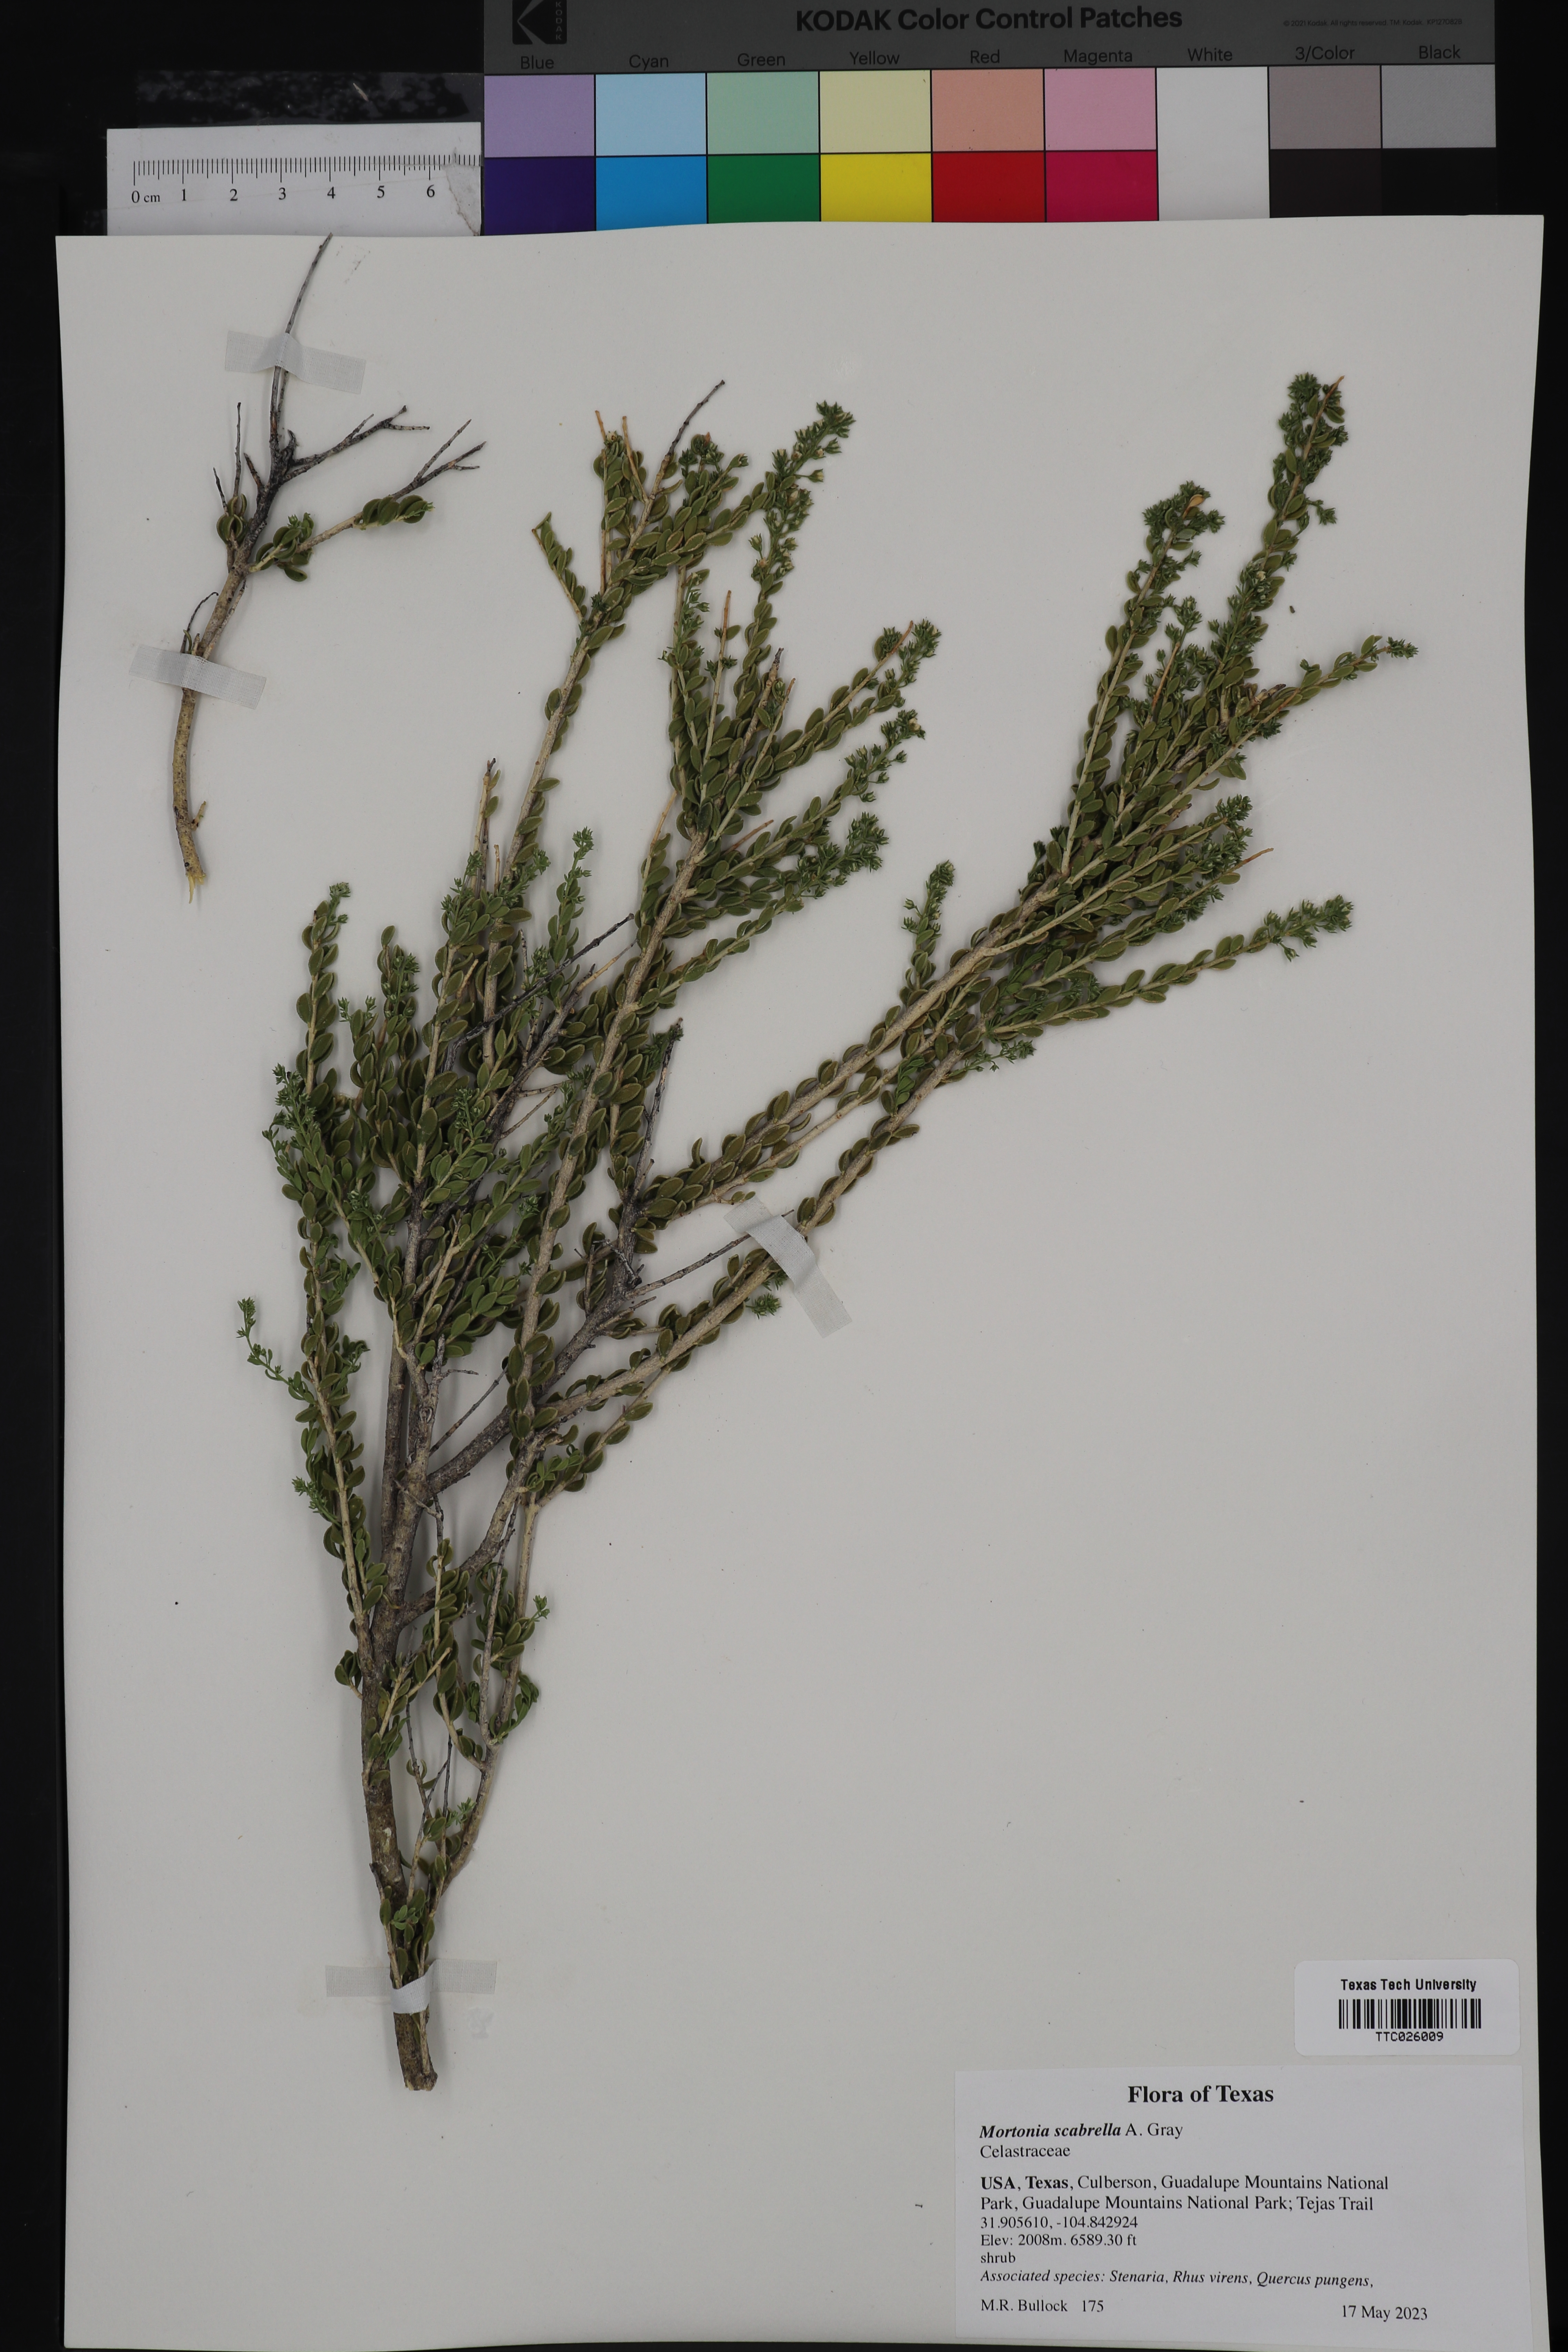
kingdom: Plantae
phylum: Tracheophyta
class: Magnoliopsida
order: Celastrales
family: Celastraceae
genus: Mortonia
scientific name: Mortonia scabrella
